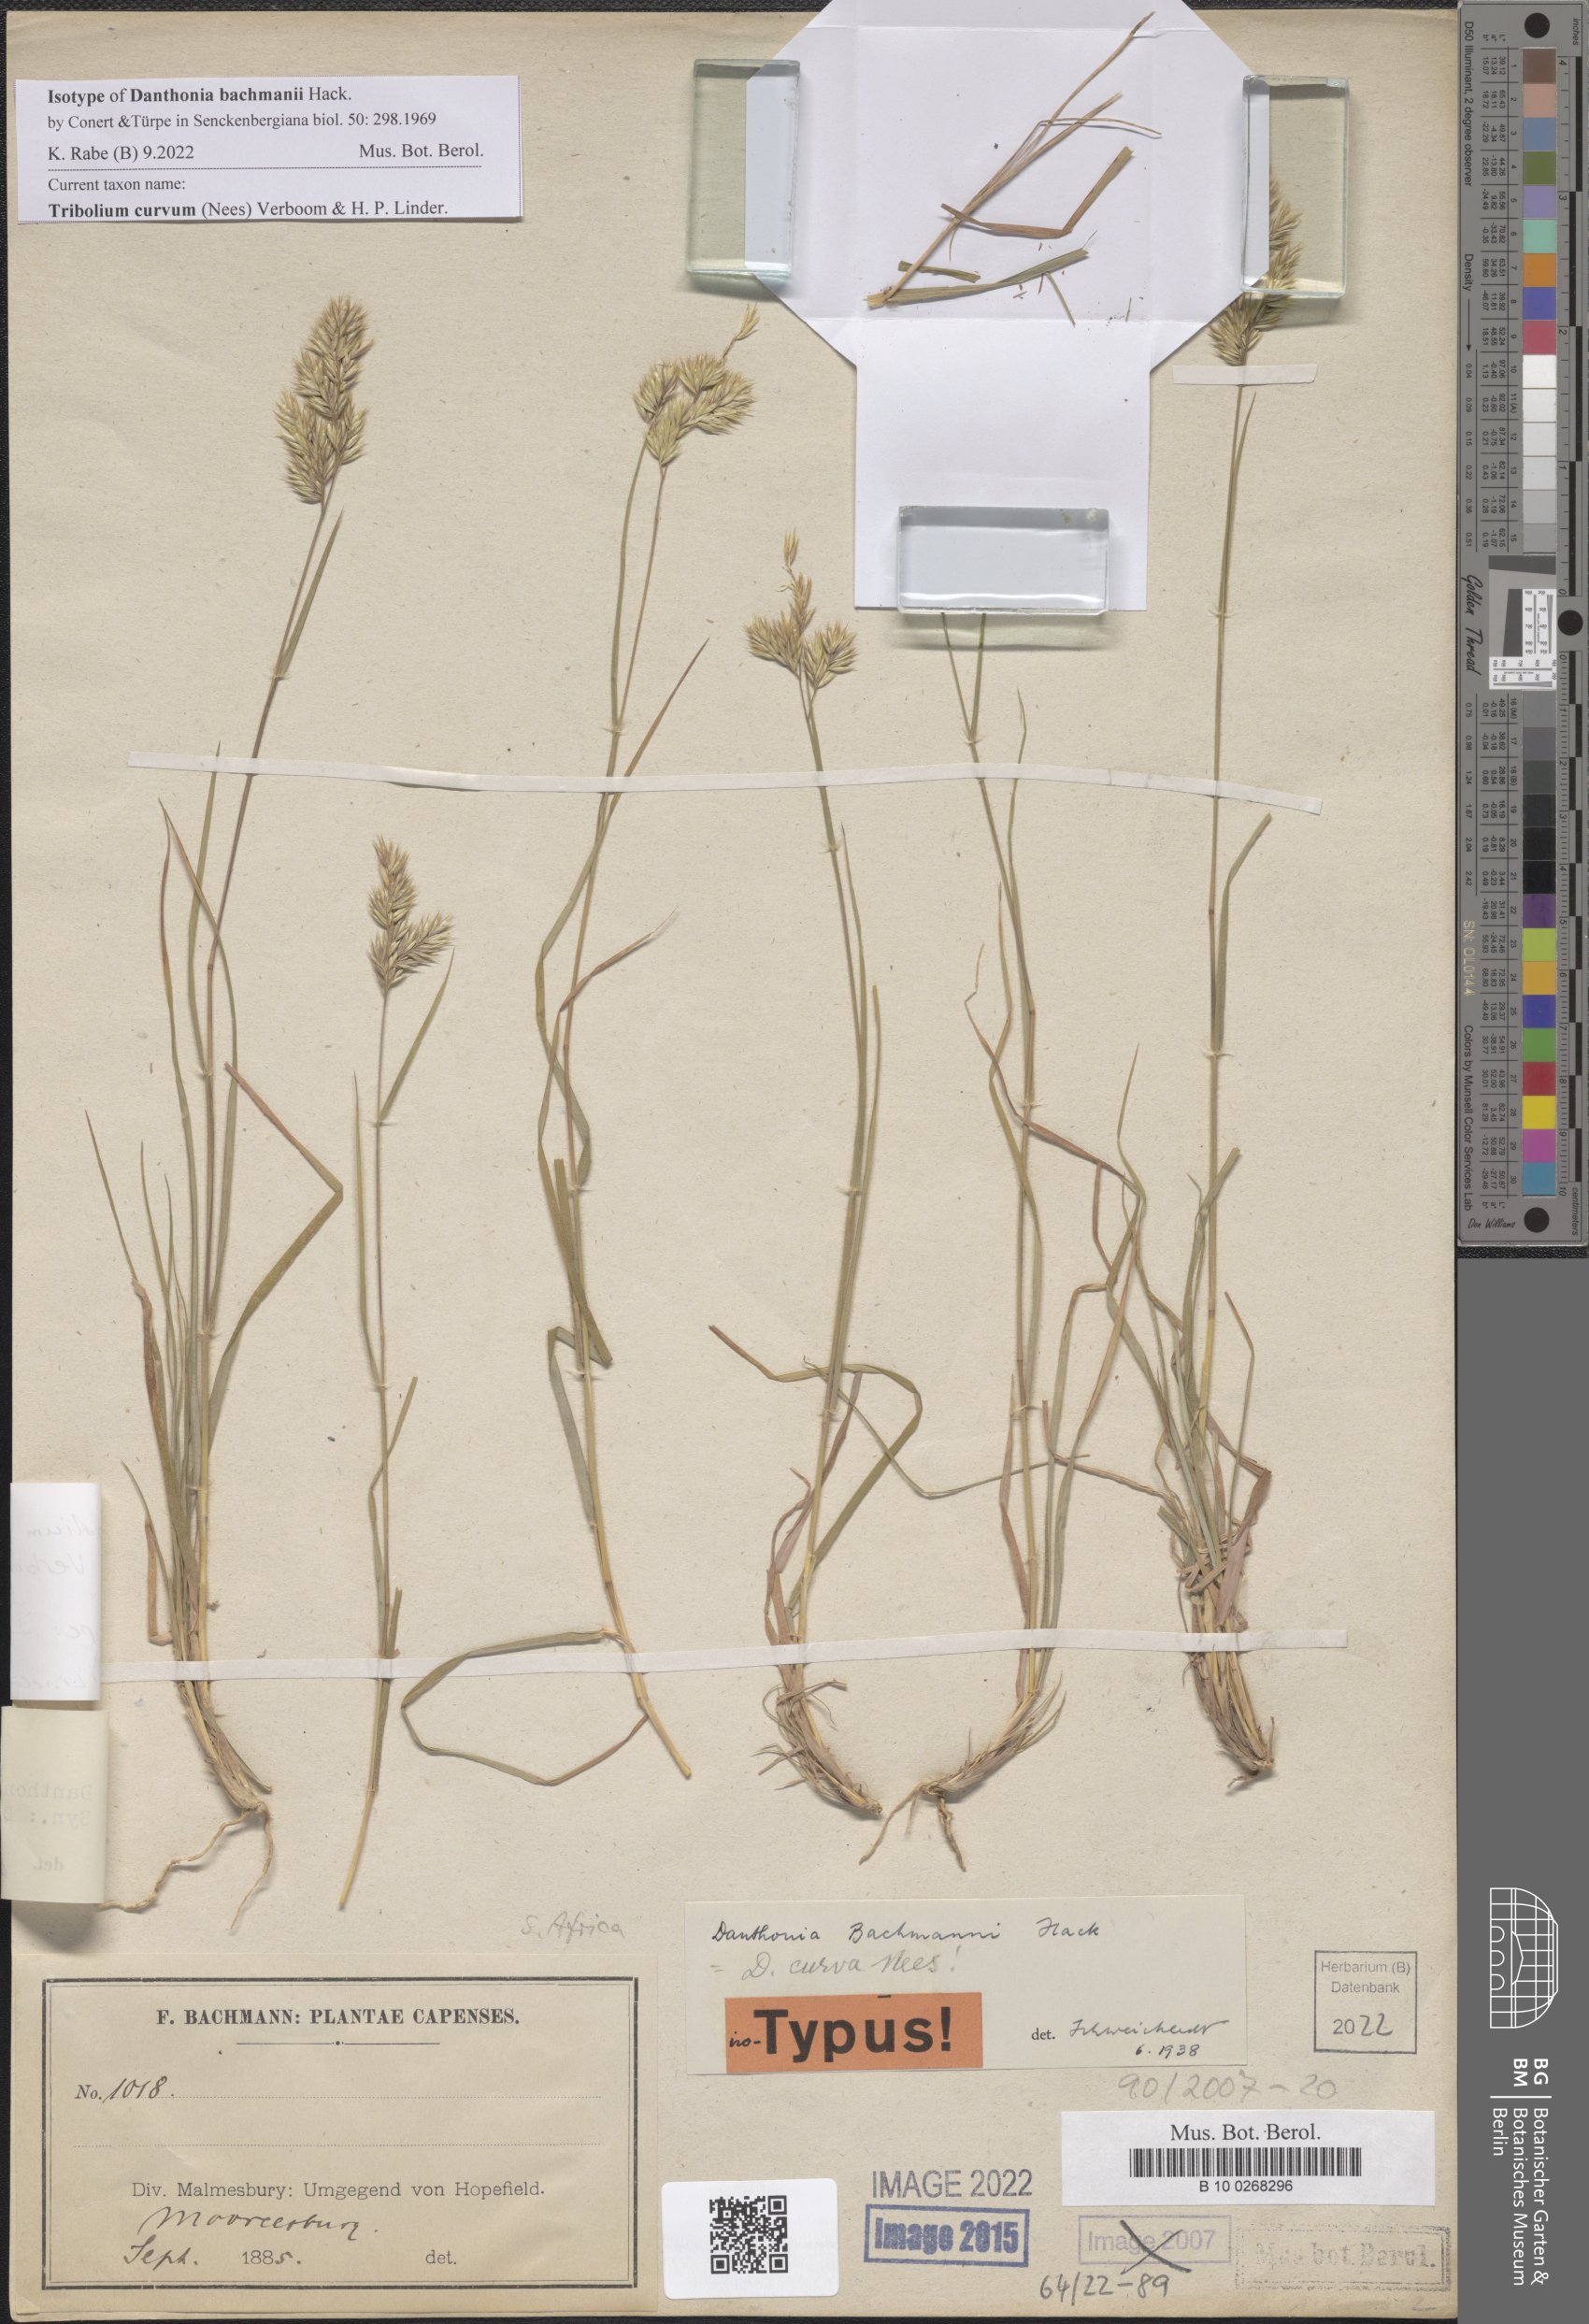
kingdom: Plantae
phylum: Tracheophyta
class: Liliopsida
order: Poales
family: Poaceae
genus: Tribolium
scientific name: Tribolium curvum
